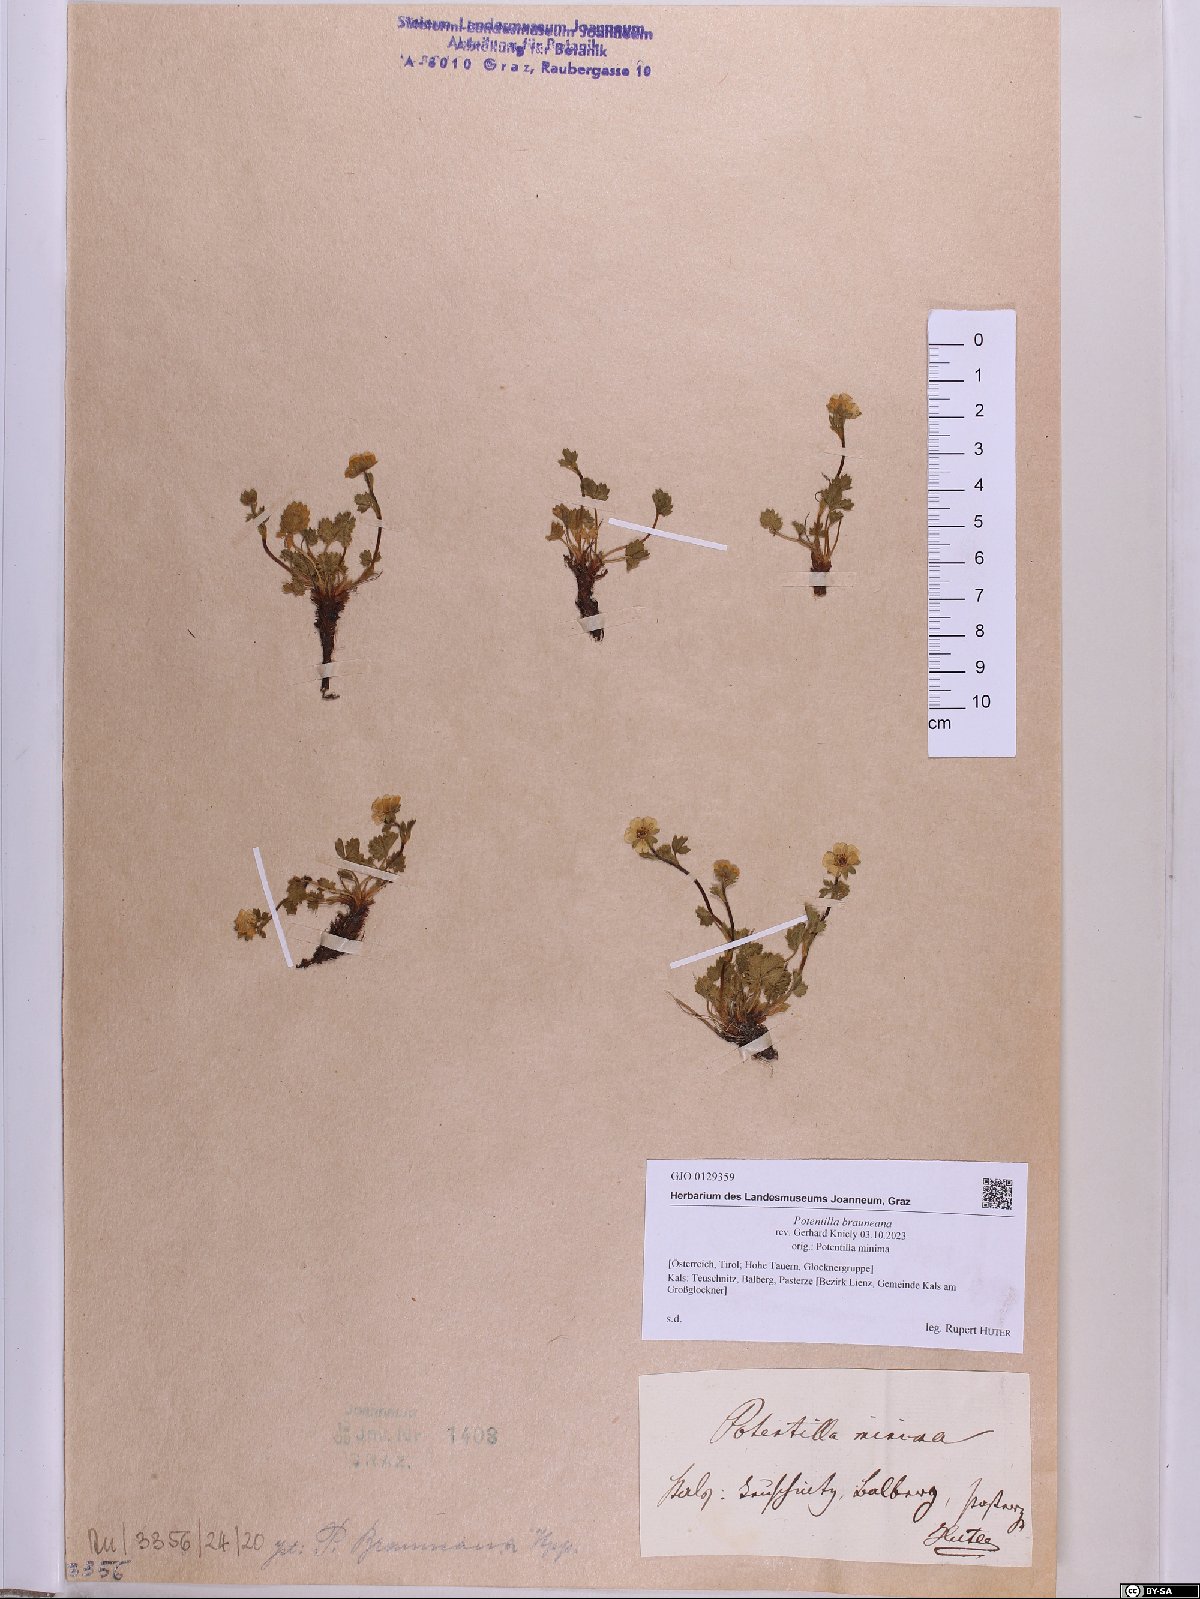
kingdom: Plantae
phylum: Tracheophyta
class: Magnoliopsida
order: Rosales
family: Rosaceae
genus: Potentilla
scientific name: Potentilla brauneana
